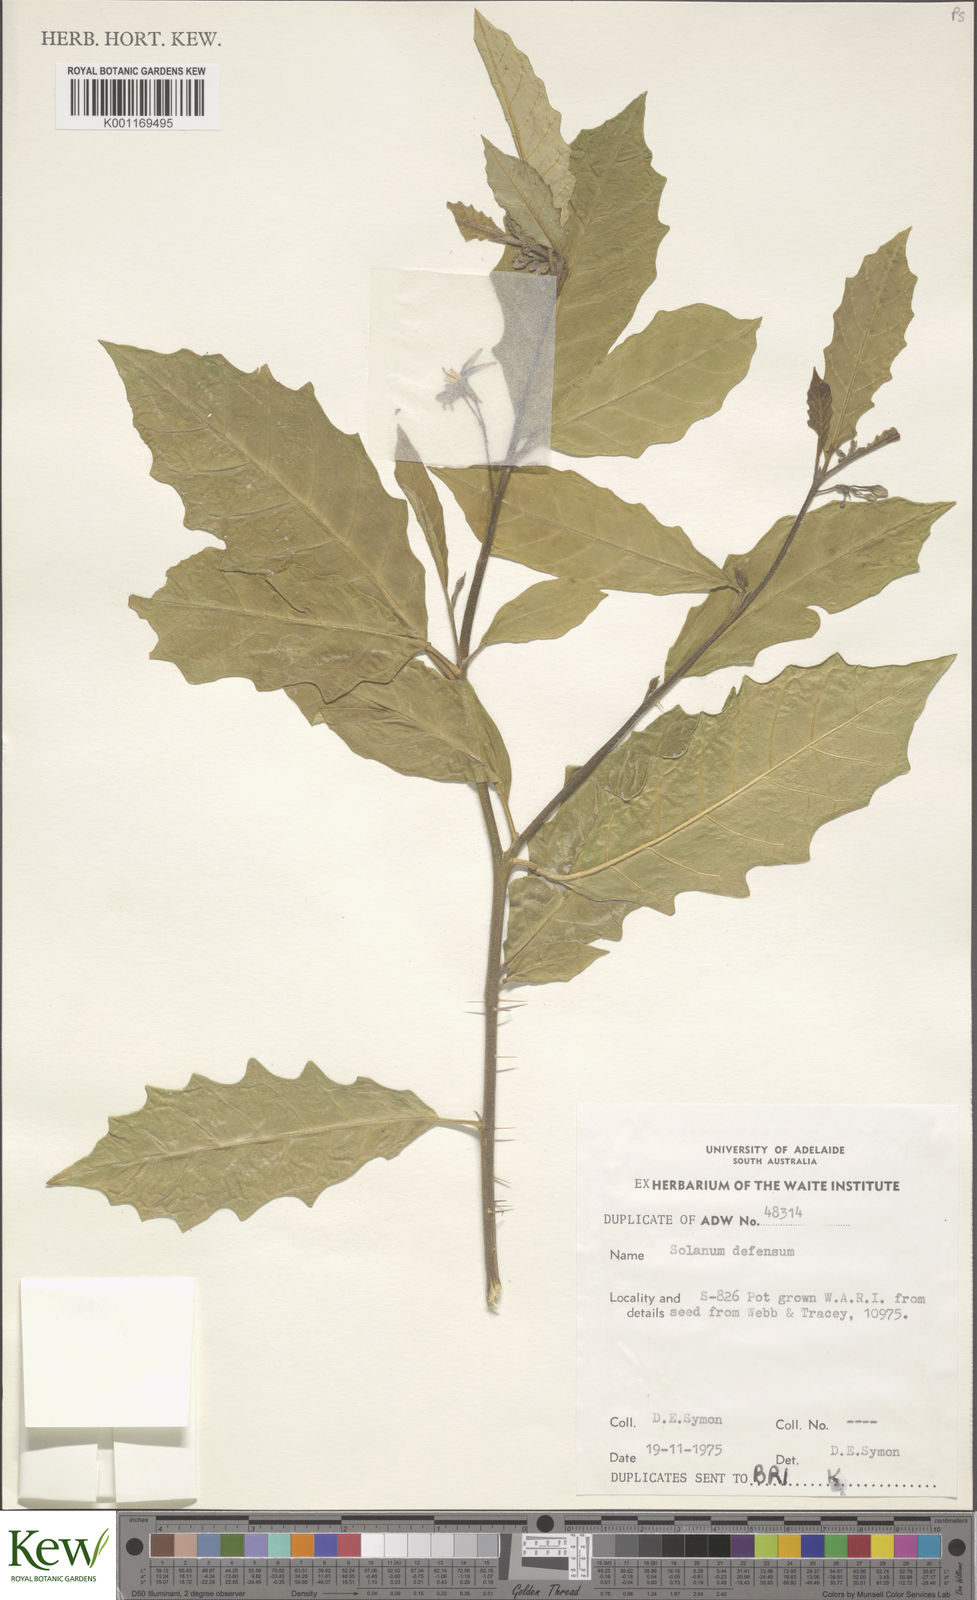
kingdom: Plantae
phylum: Tracheophyta
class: Magnoliopsida
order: Solanales
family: Solanaceae
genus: Solanum
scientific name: Solanum defensum
